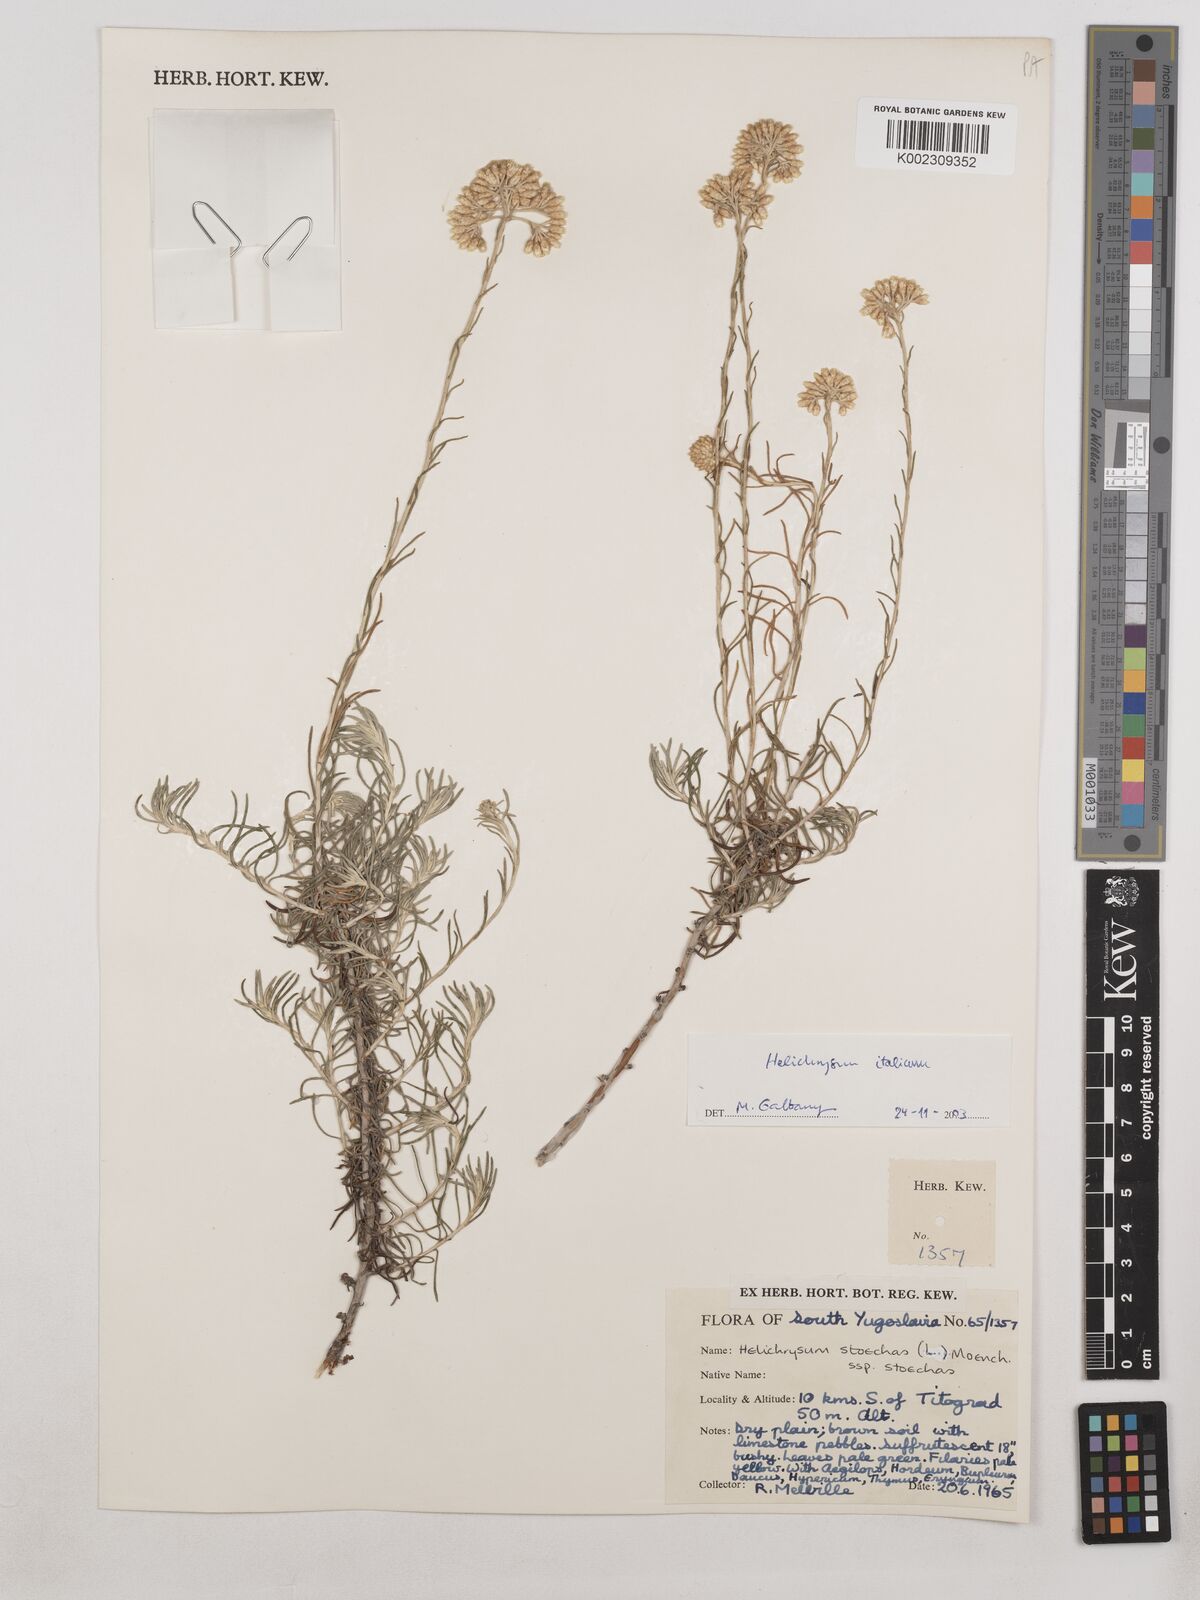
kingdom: Plantae
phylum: Tracheophyta
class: Magnoliopsida
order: Asterales
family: Asteraceae
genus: Helichrysum
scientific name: Helichrysum stoechas
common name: Goldilocks
